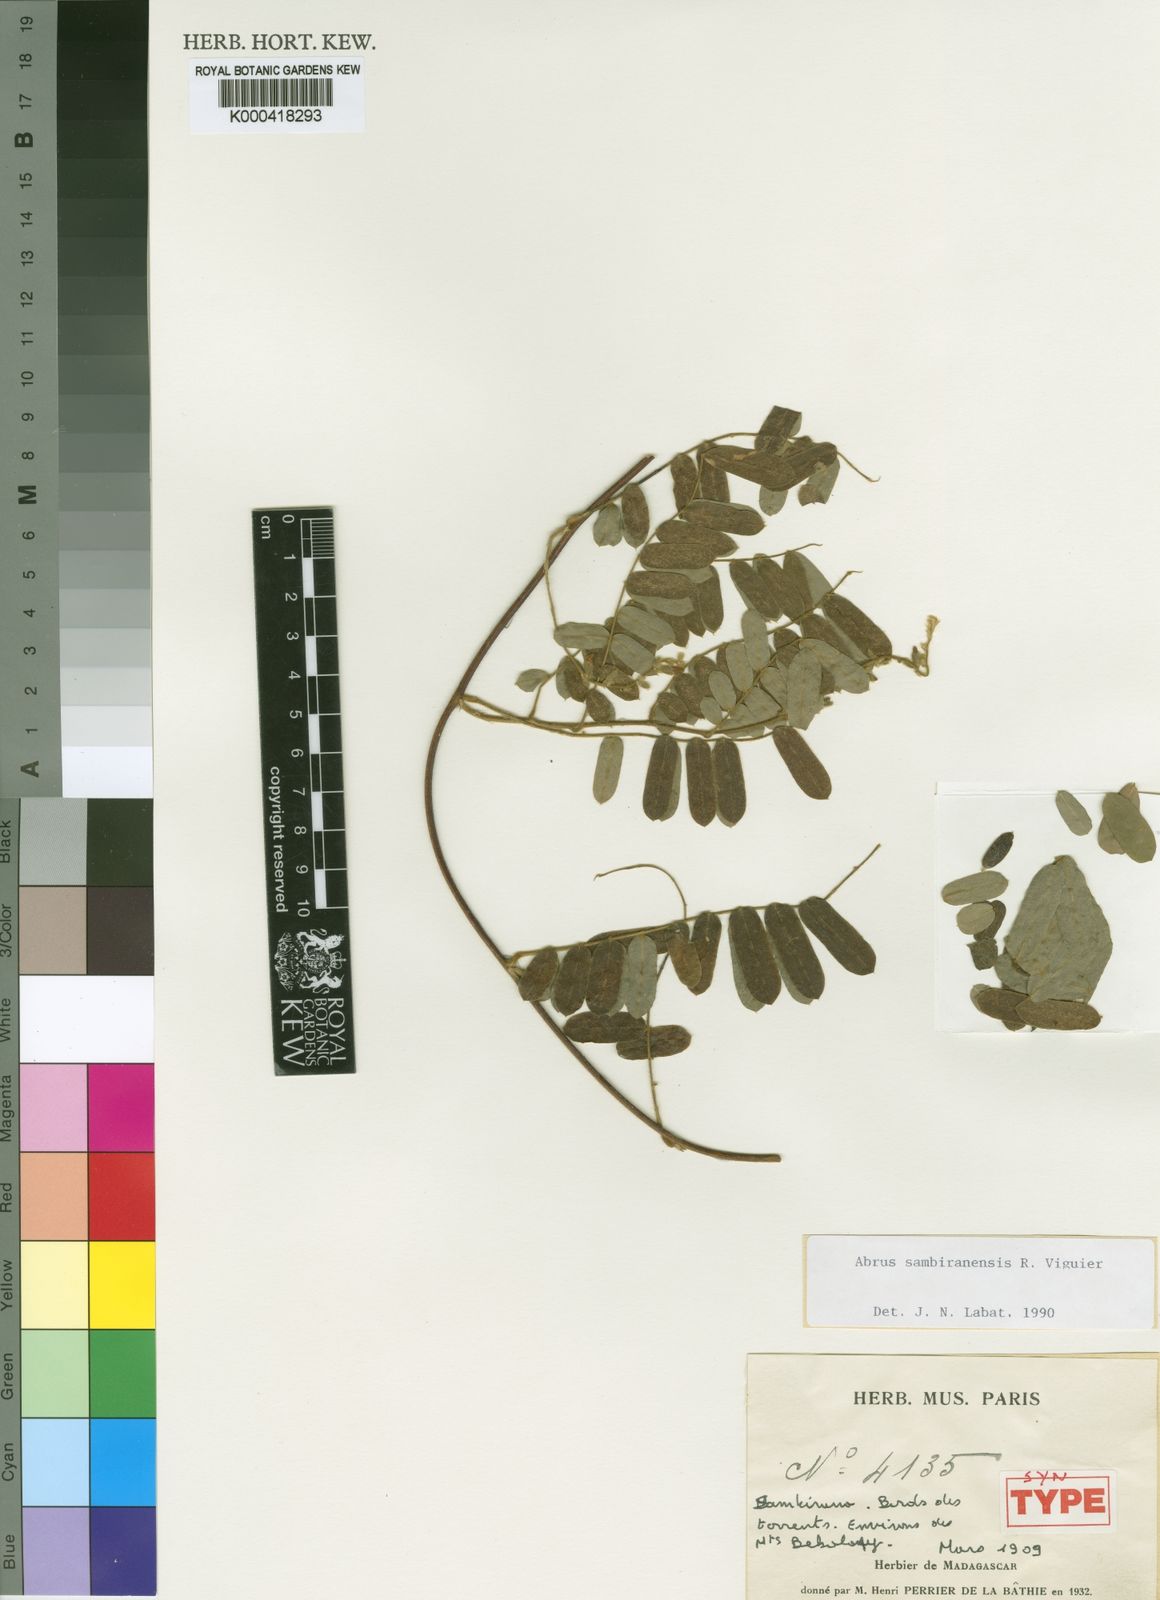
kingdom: Plantae
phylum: Tracheophyta
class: Magnoliopsida
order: Fabales
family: Fabaceae
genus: Abrus
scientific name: Abrus sambiranensis
